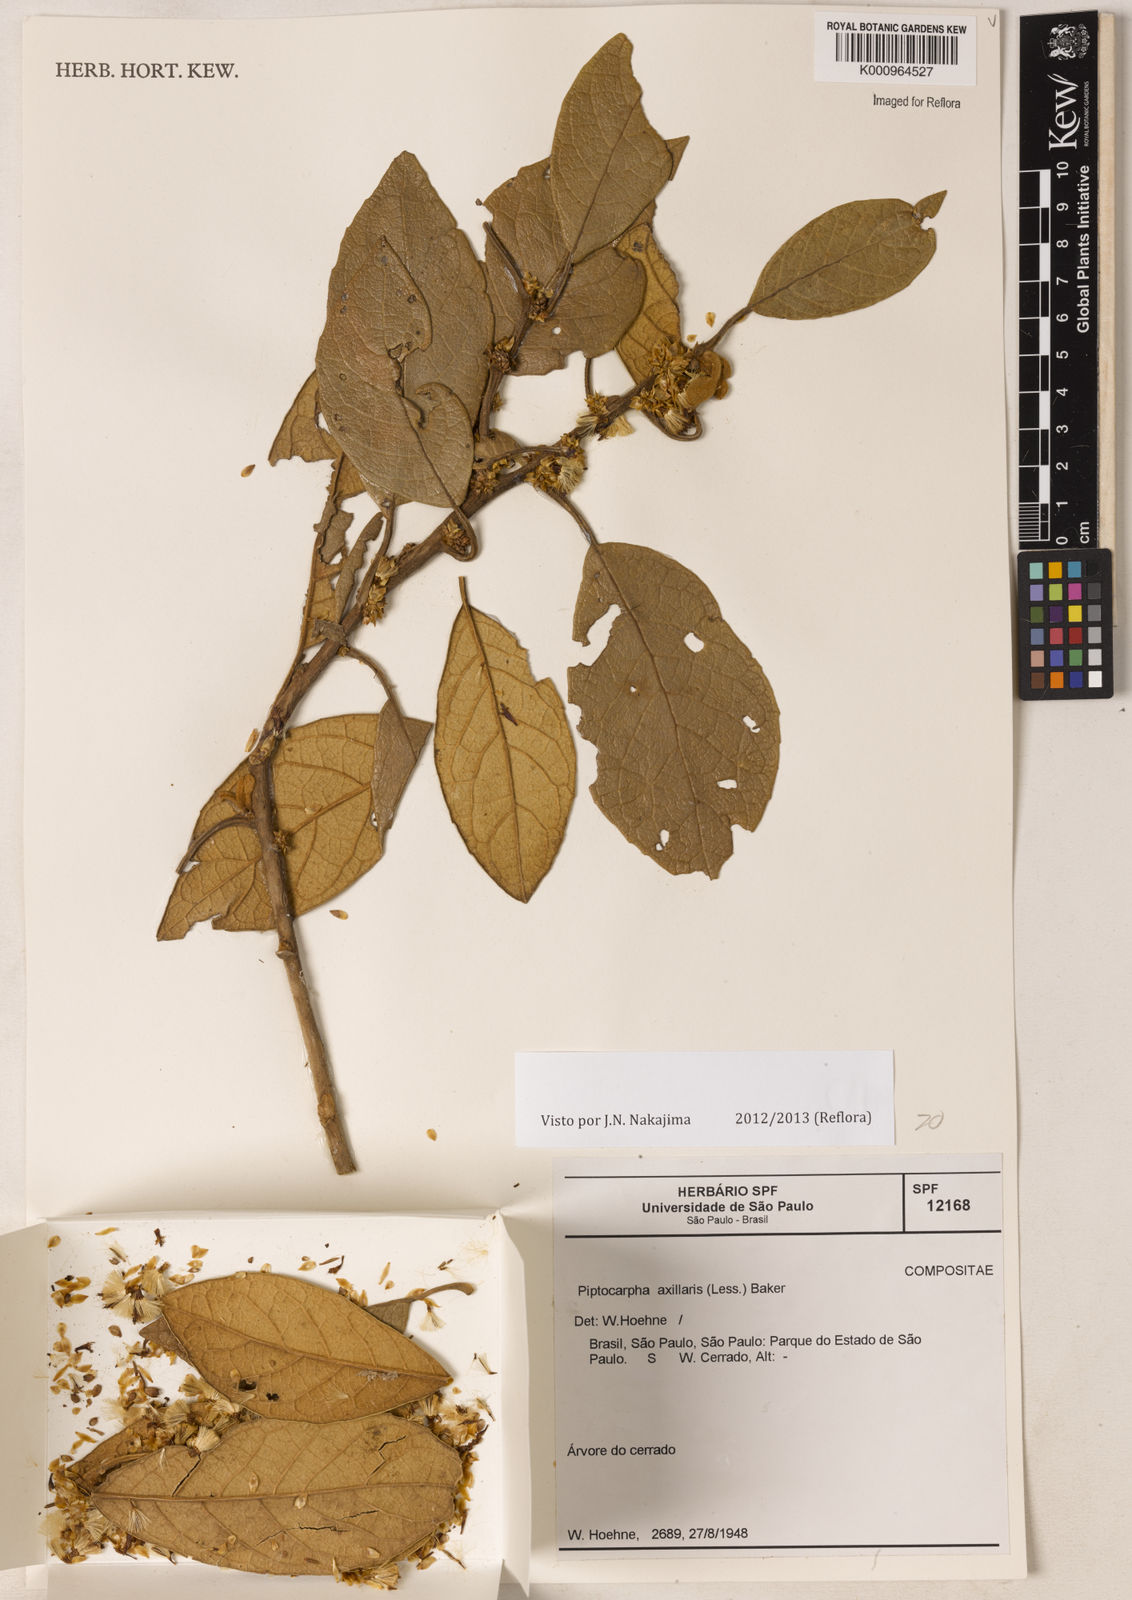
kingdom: Plantae
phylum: Tracheophyta
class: Magnoliopsida
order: Asterales
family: Asteraceae
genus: Piptocarpha
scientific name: Piptocarpha axillaris
